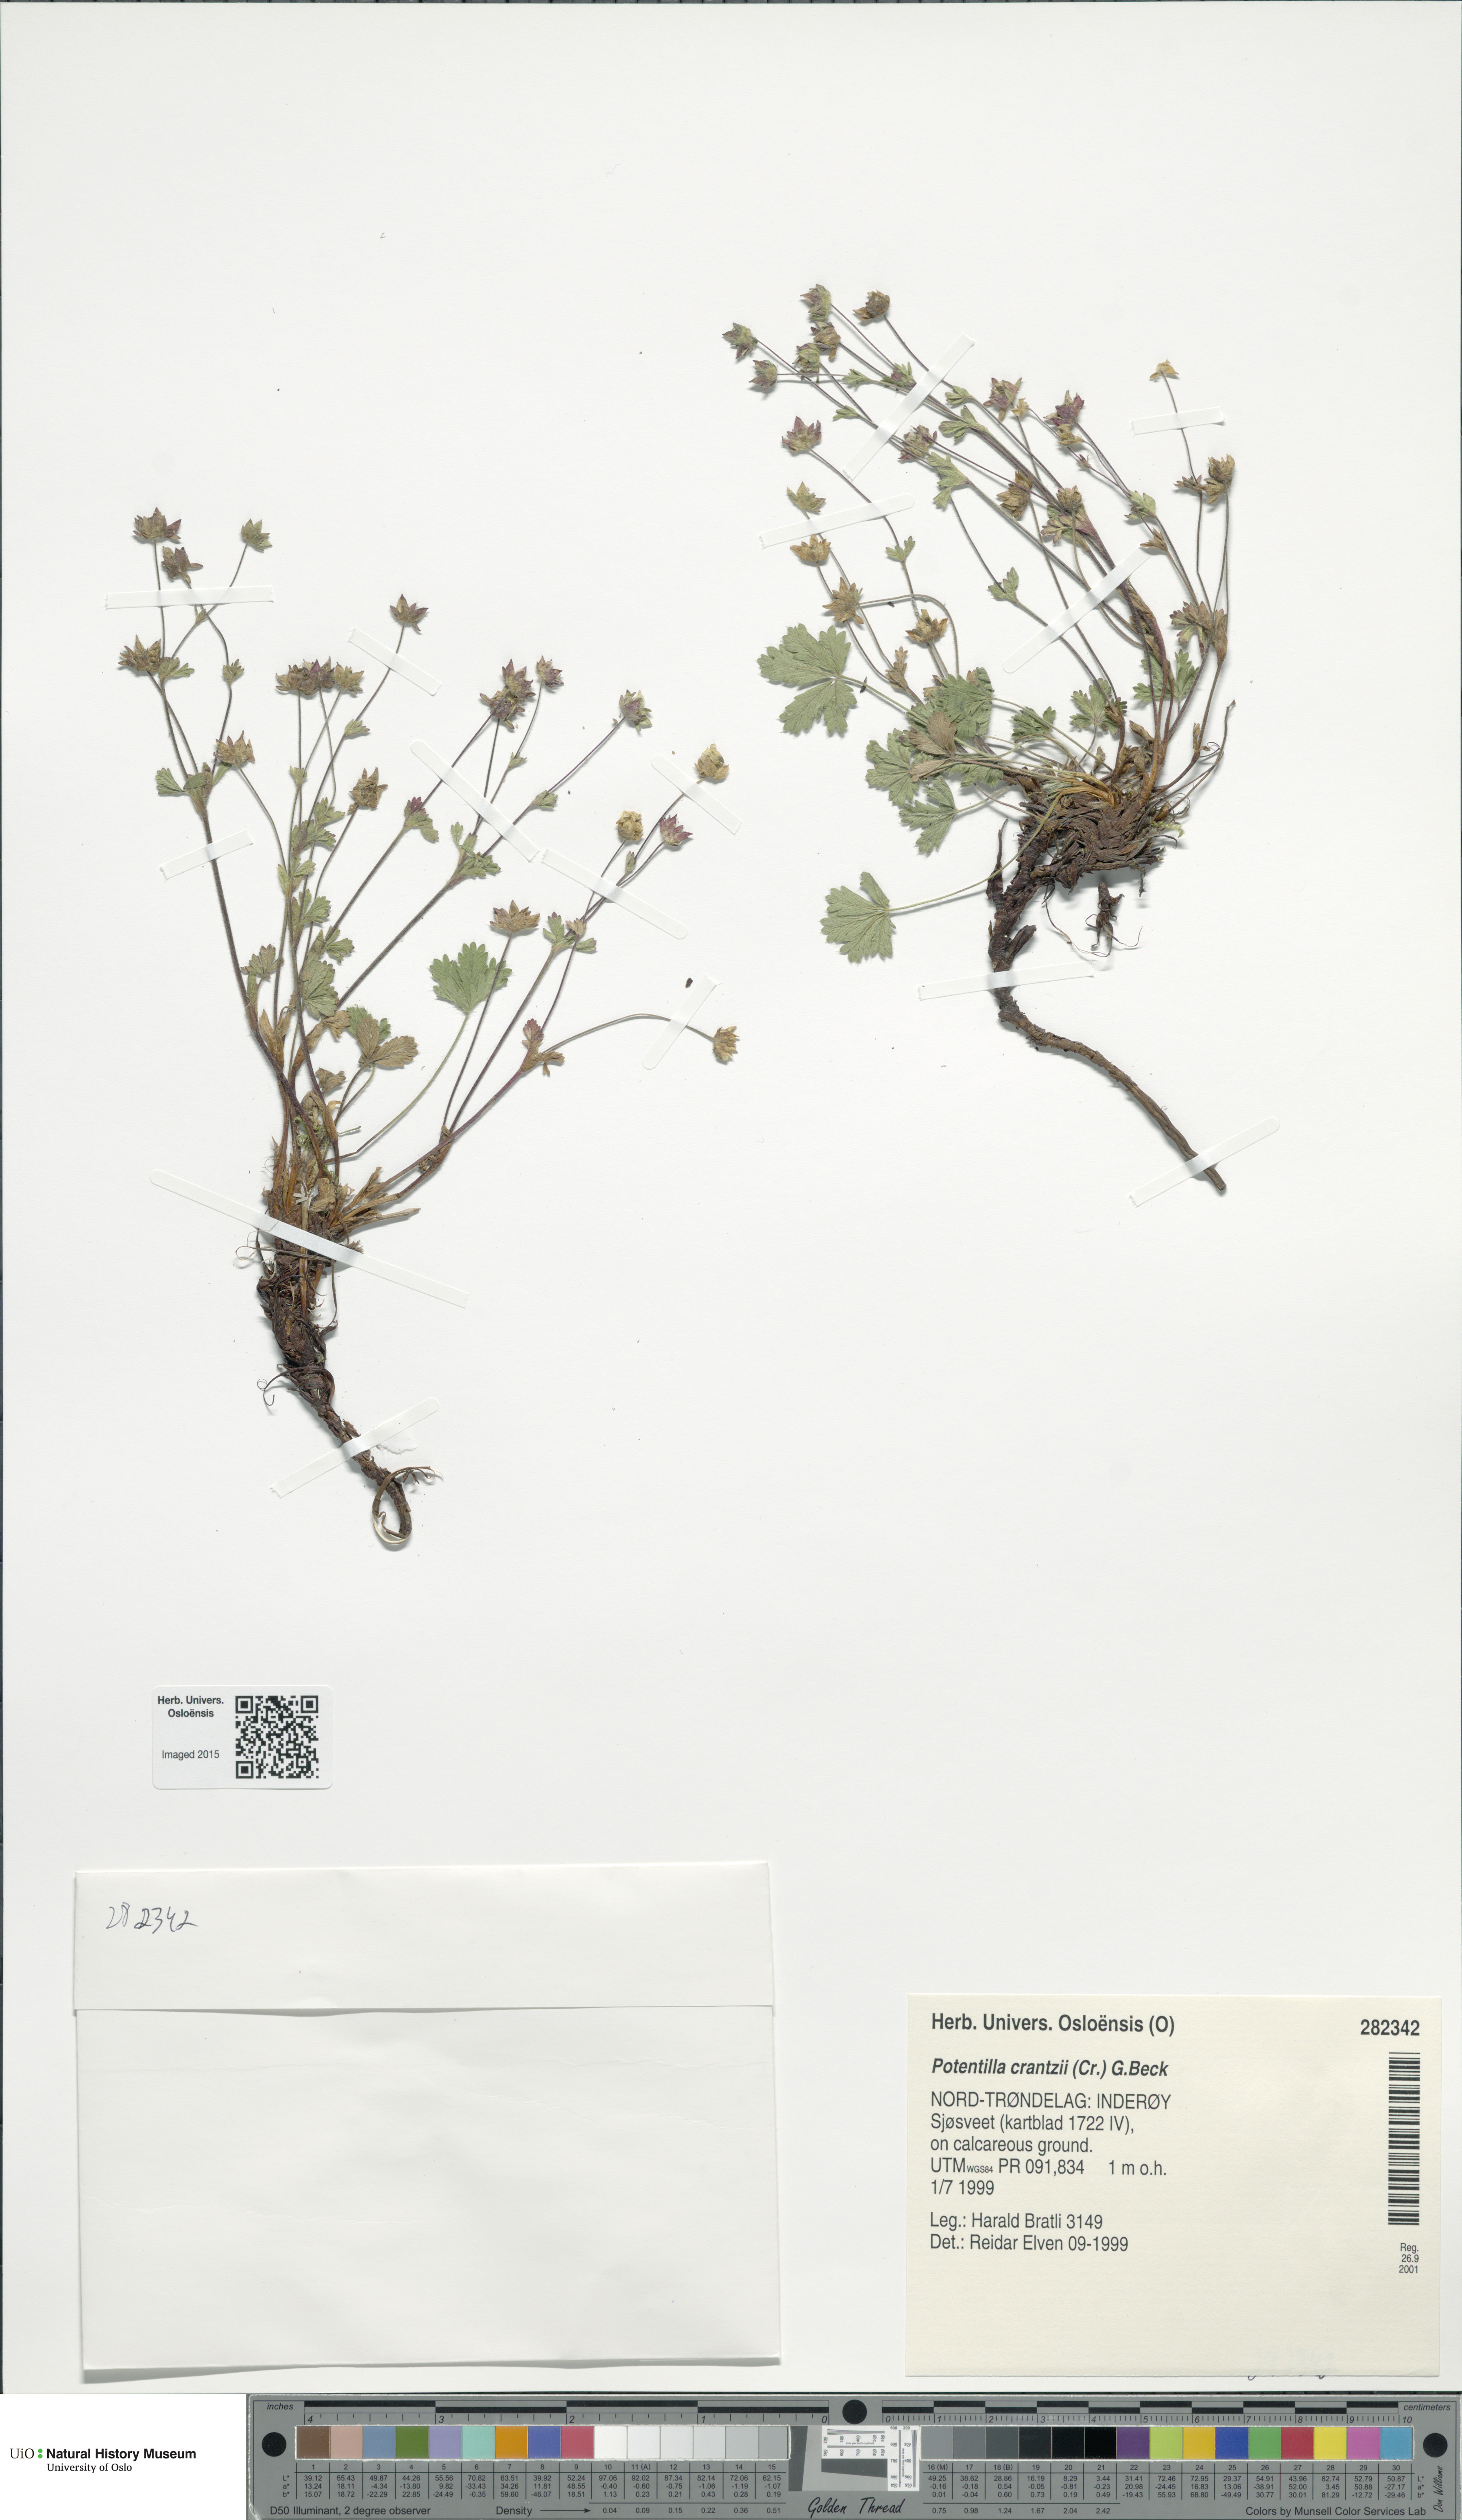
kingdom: Plantae
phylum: Tracheophyta
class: Magnoliopsida
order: Rosales
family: Rosaceae
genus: Potentilla
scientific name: Potentilla crantzii
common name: Alpine cinquefoil
